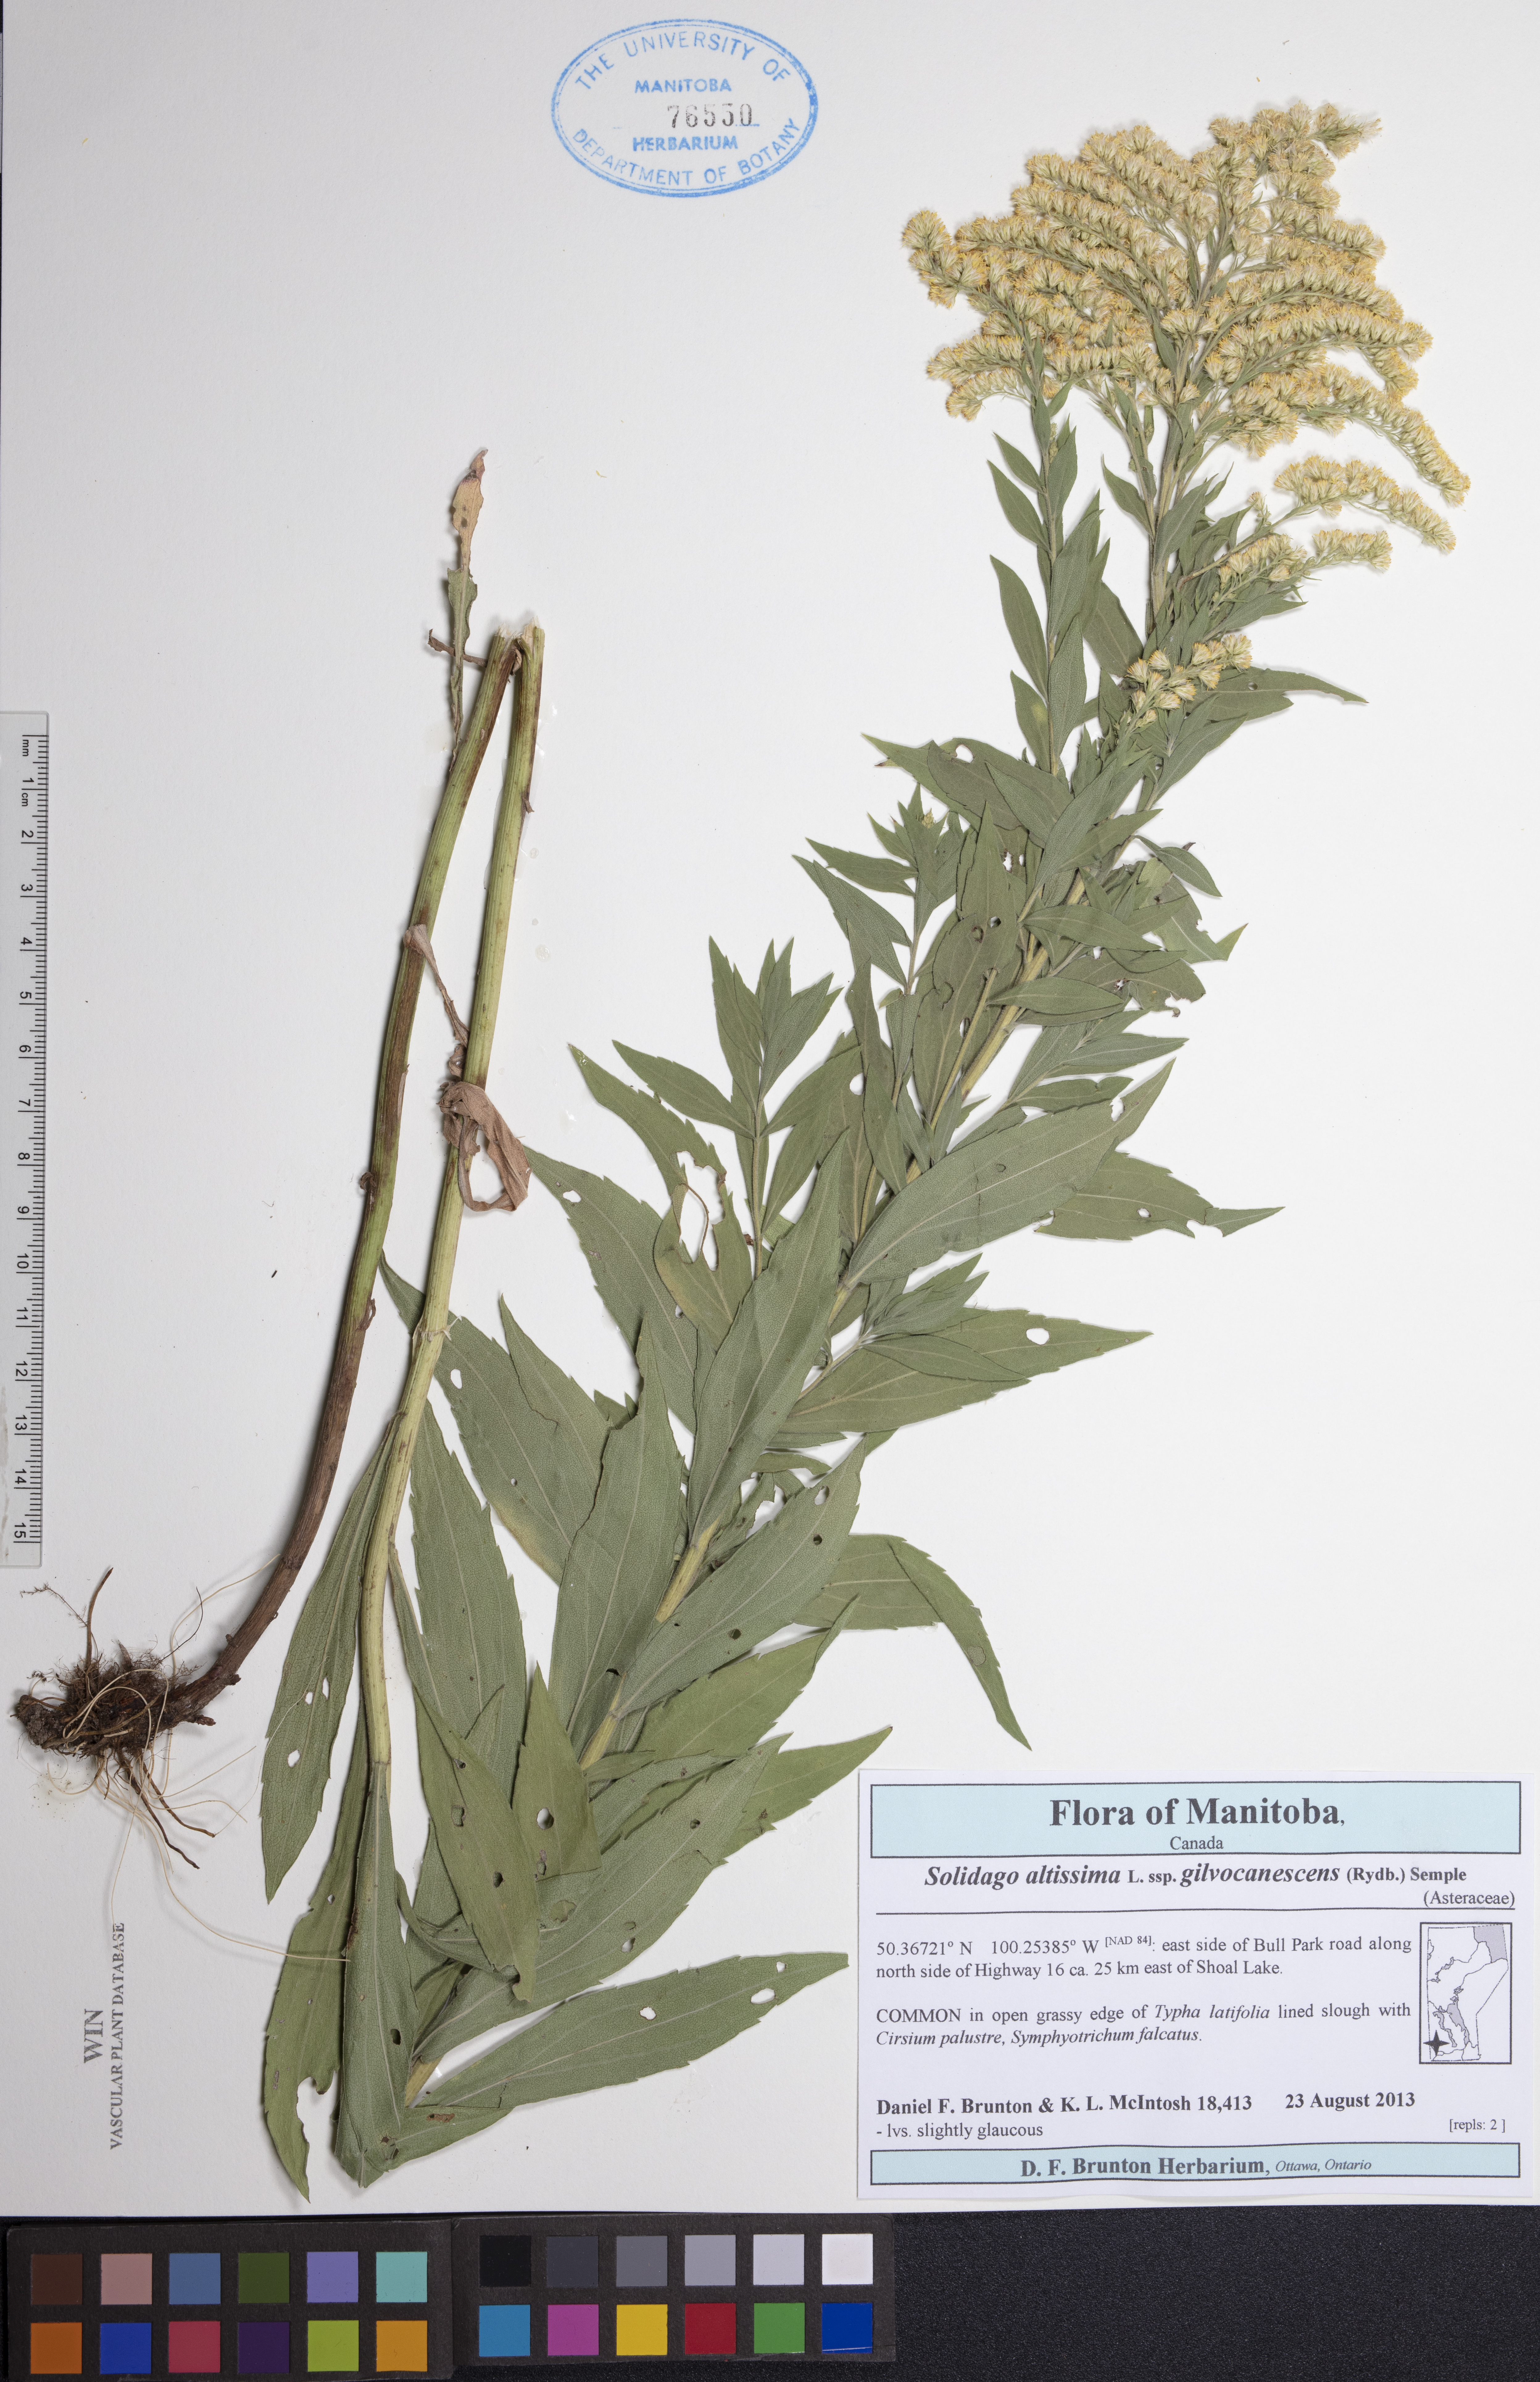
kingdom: Plantae
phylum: Tracheophyta
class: Magnoliopsida
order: Asterales
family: Asteraceae
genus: Solidago
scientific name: Solidago altissima
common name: Late goldenrod
